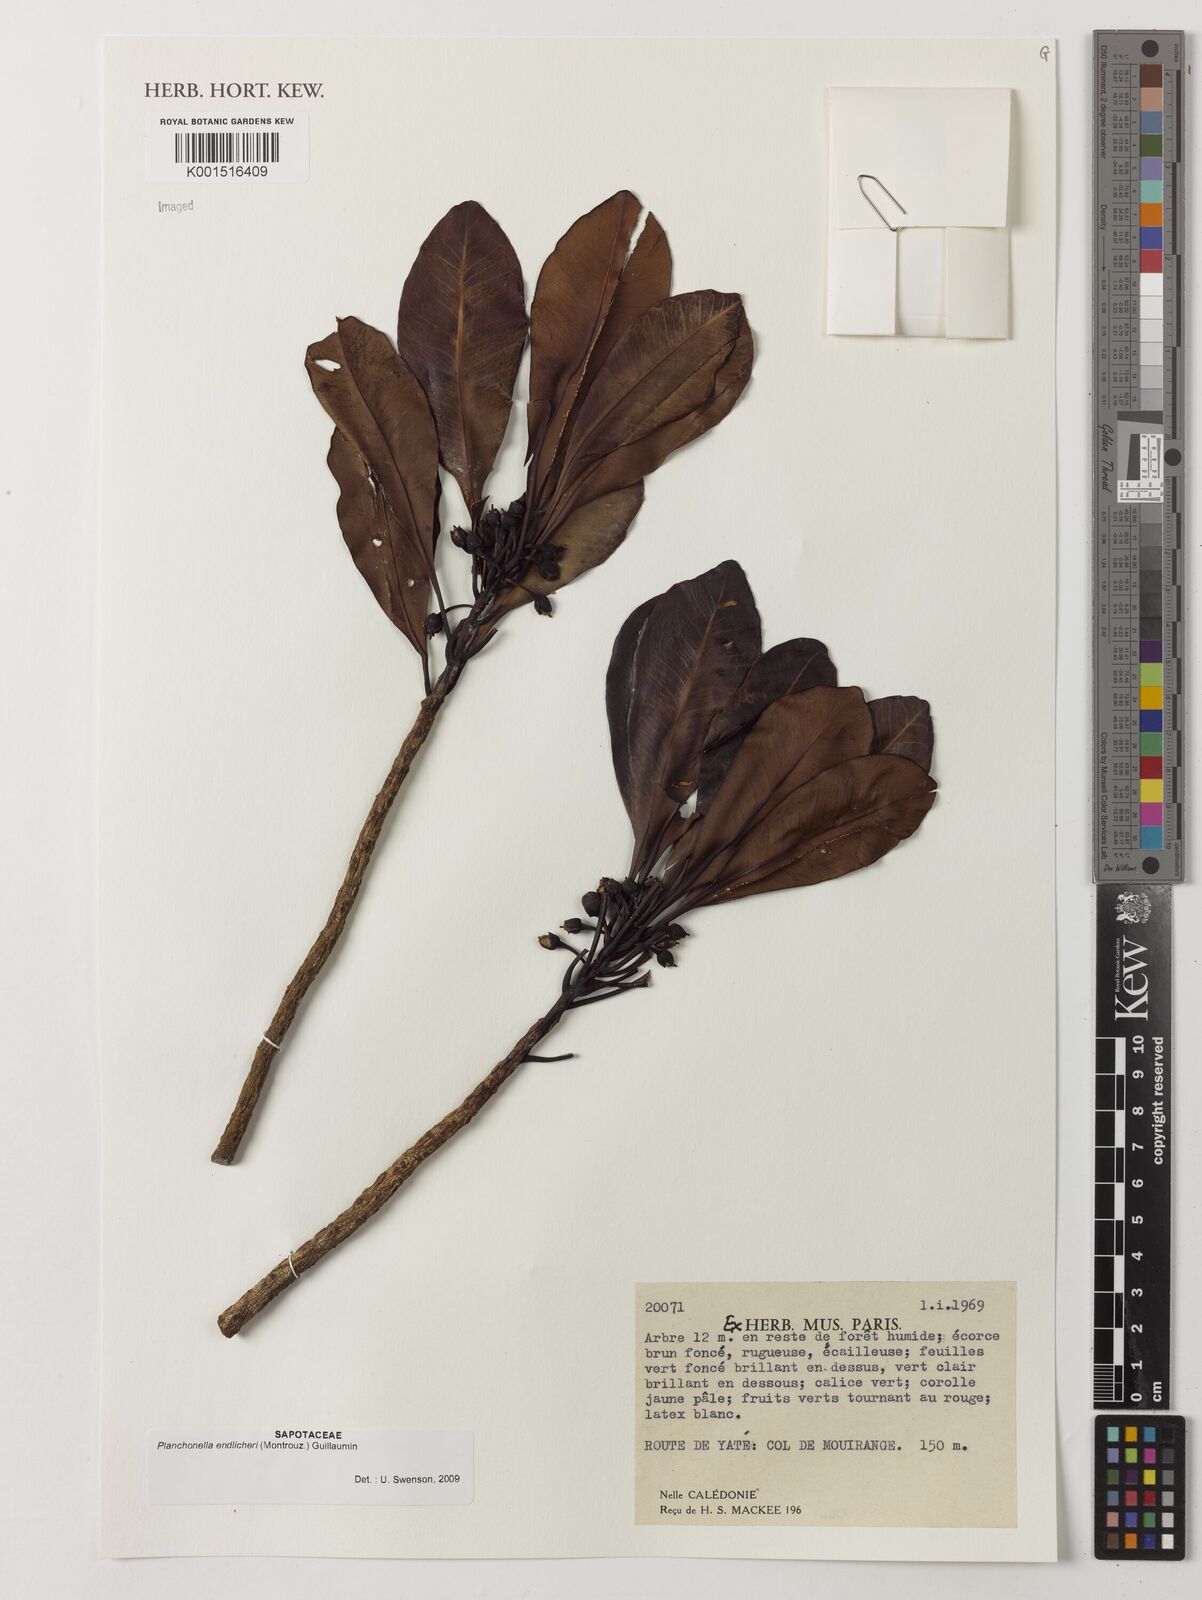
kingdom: Plantae
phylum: Tracheophyta
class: Magnoliopsida
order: Ericales
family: Sapotaceae
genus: Planchonella
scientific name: Planchonella endlicheri
